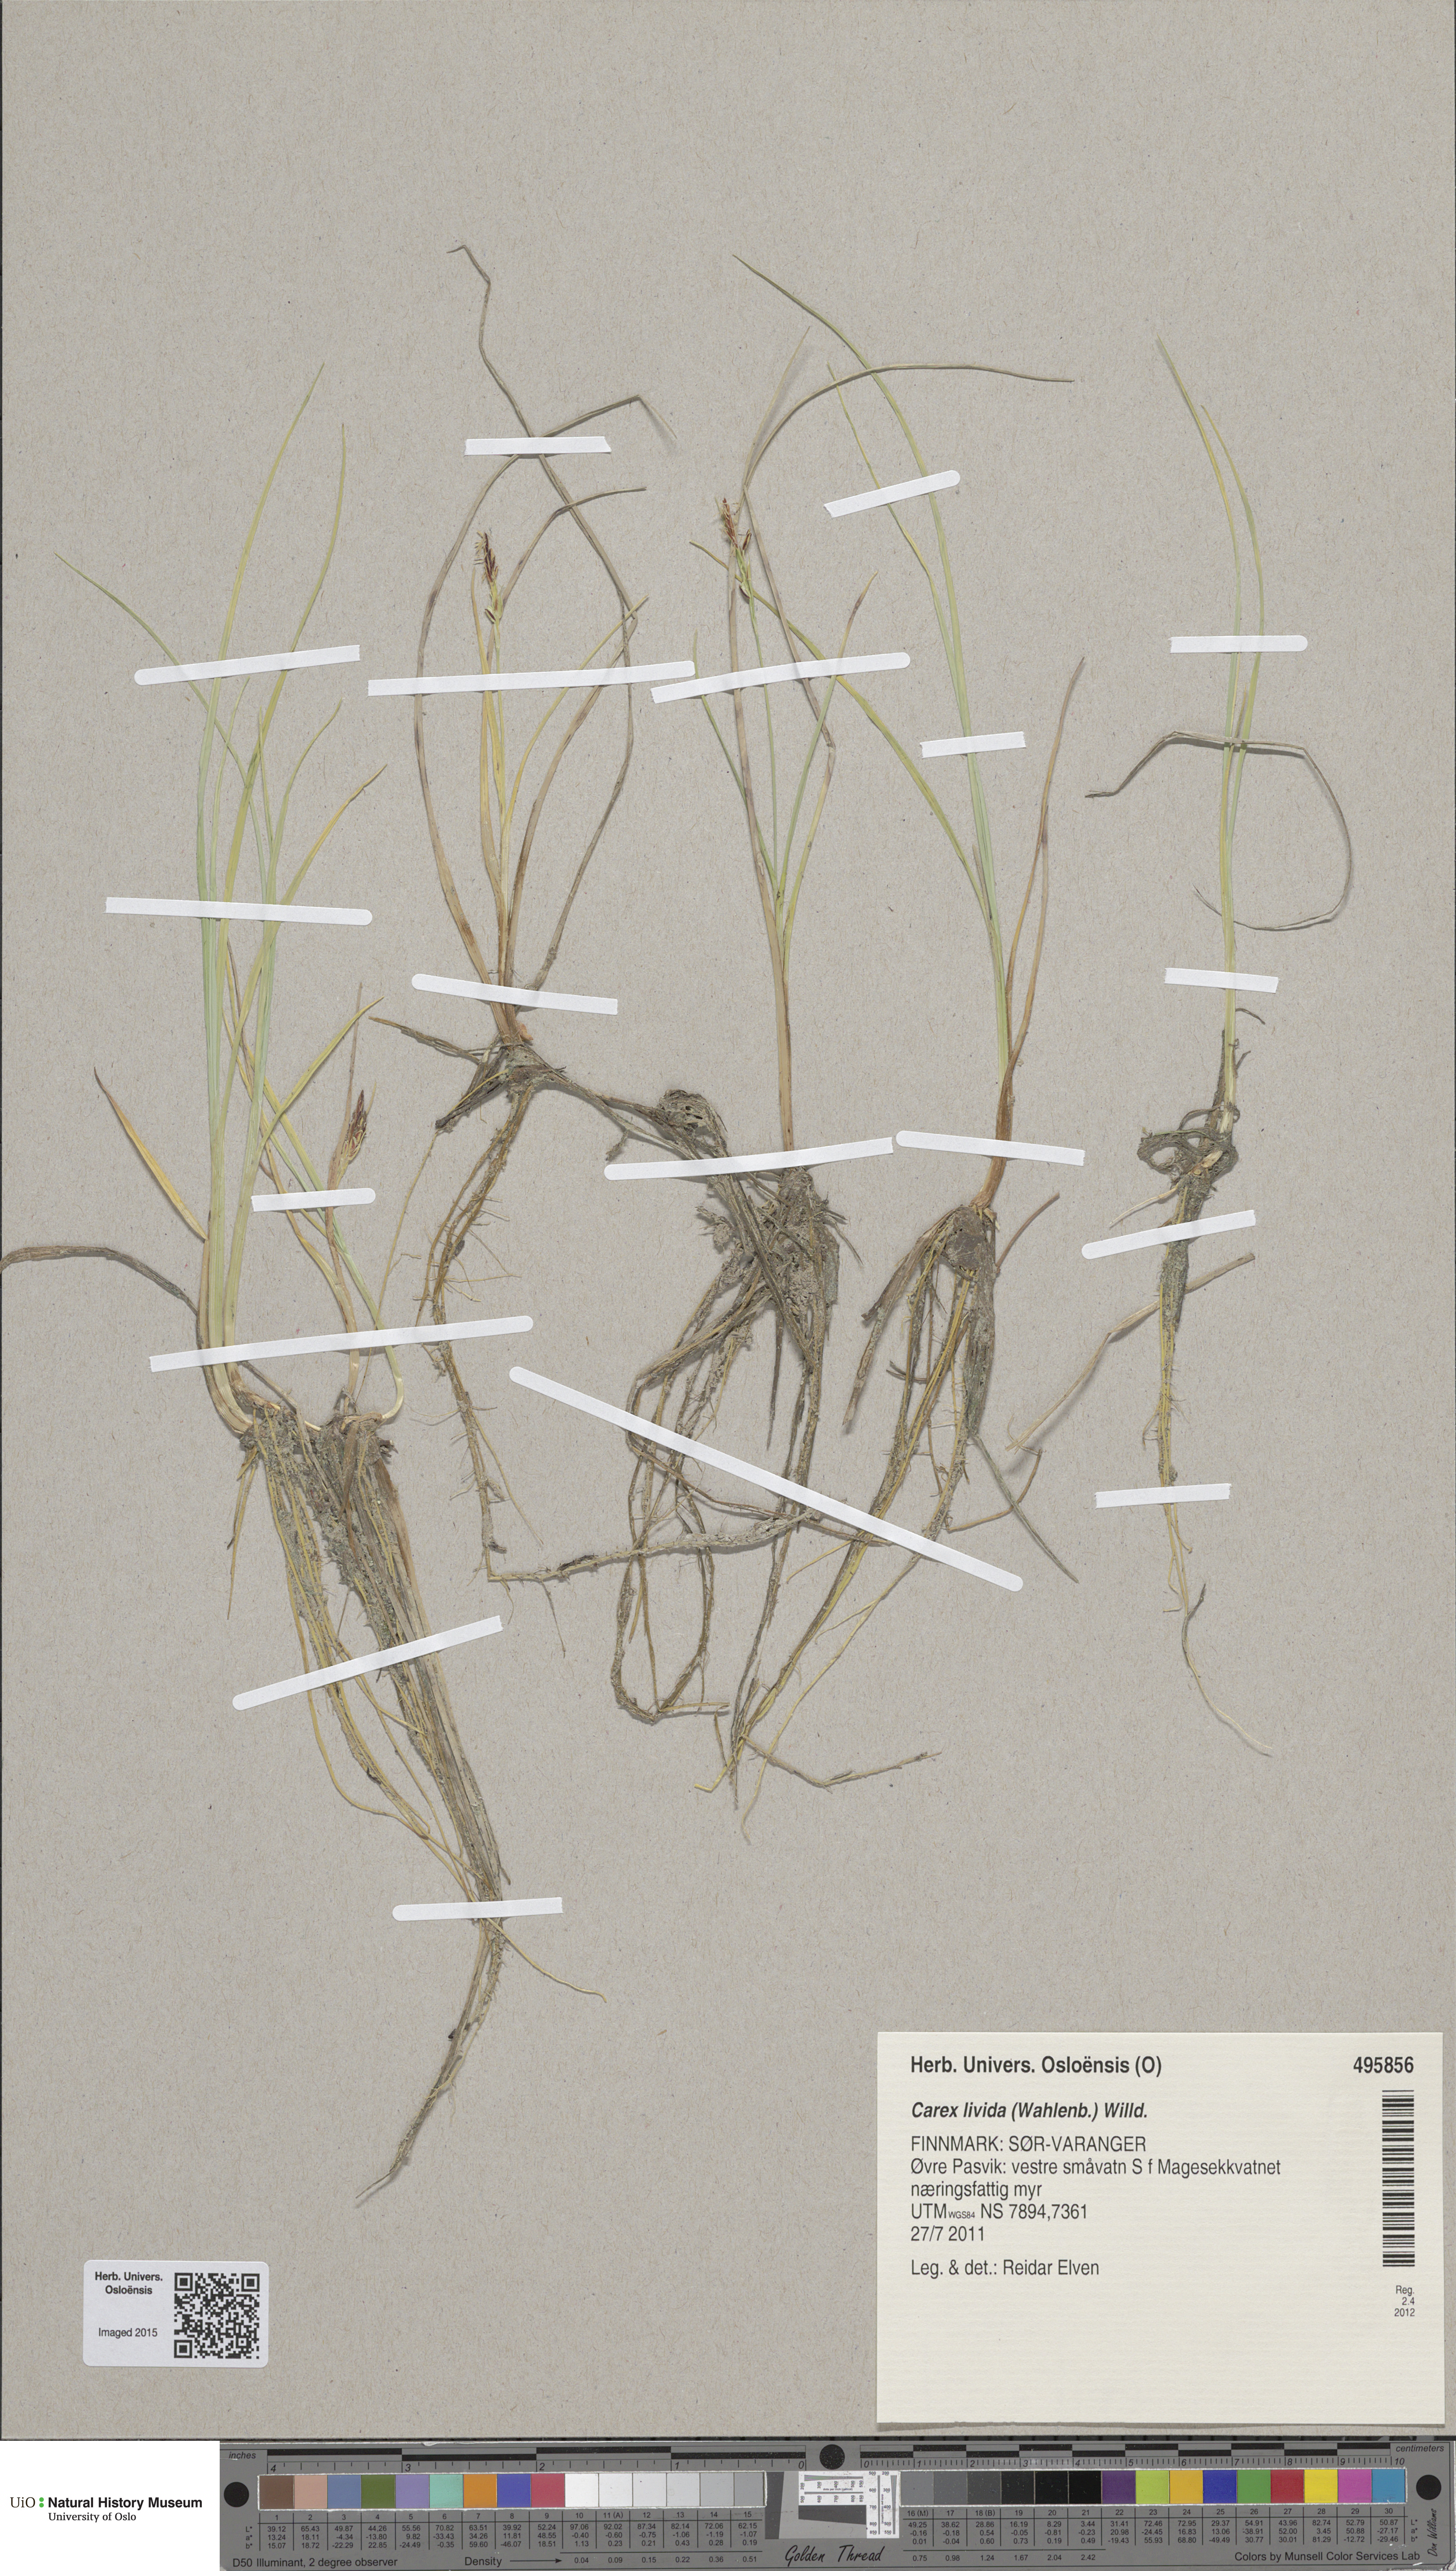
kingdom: Plantae
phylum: Tracheophyta
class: Liliopsida
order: Poales
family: Cyperaceae
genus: Carex
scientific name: Carex livida
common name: Livid sedge
